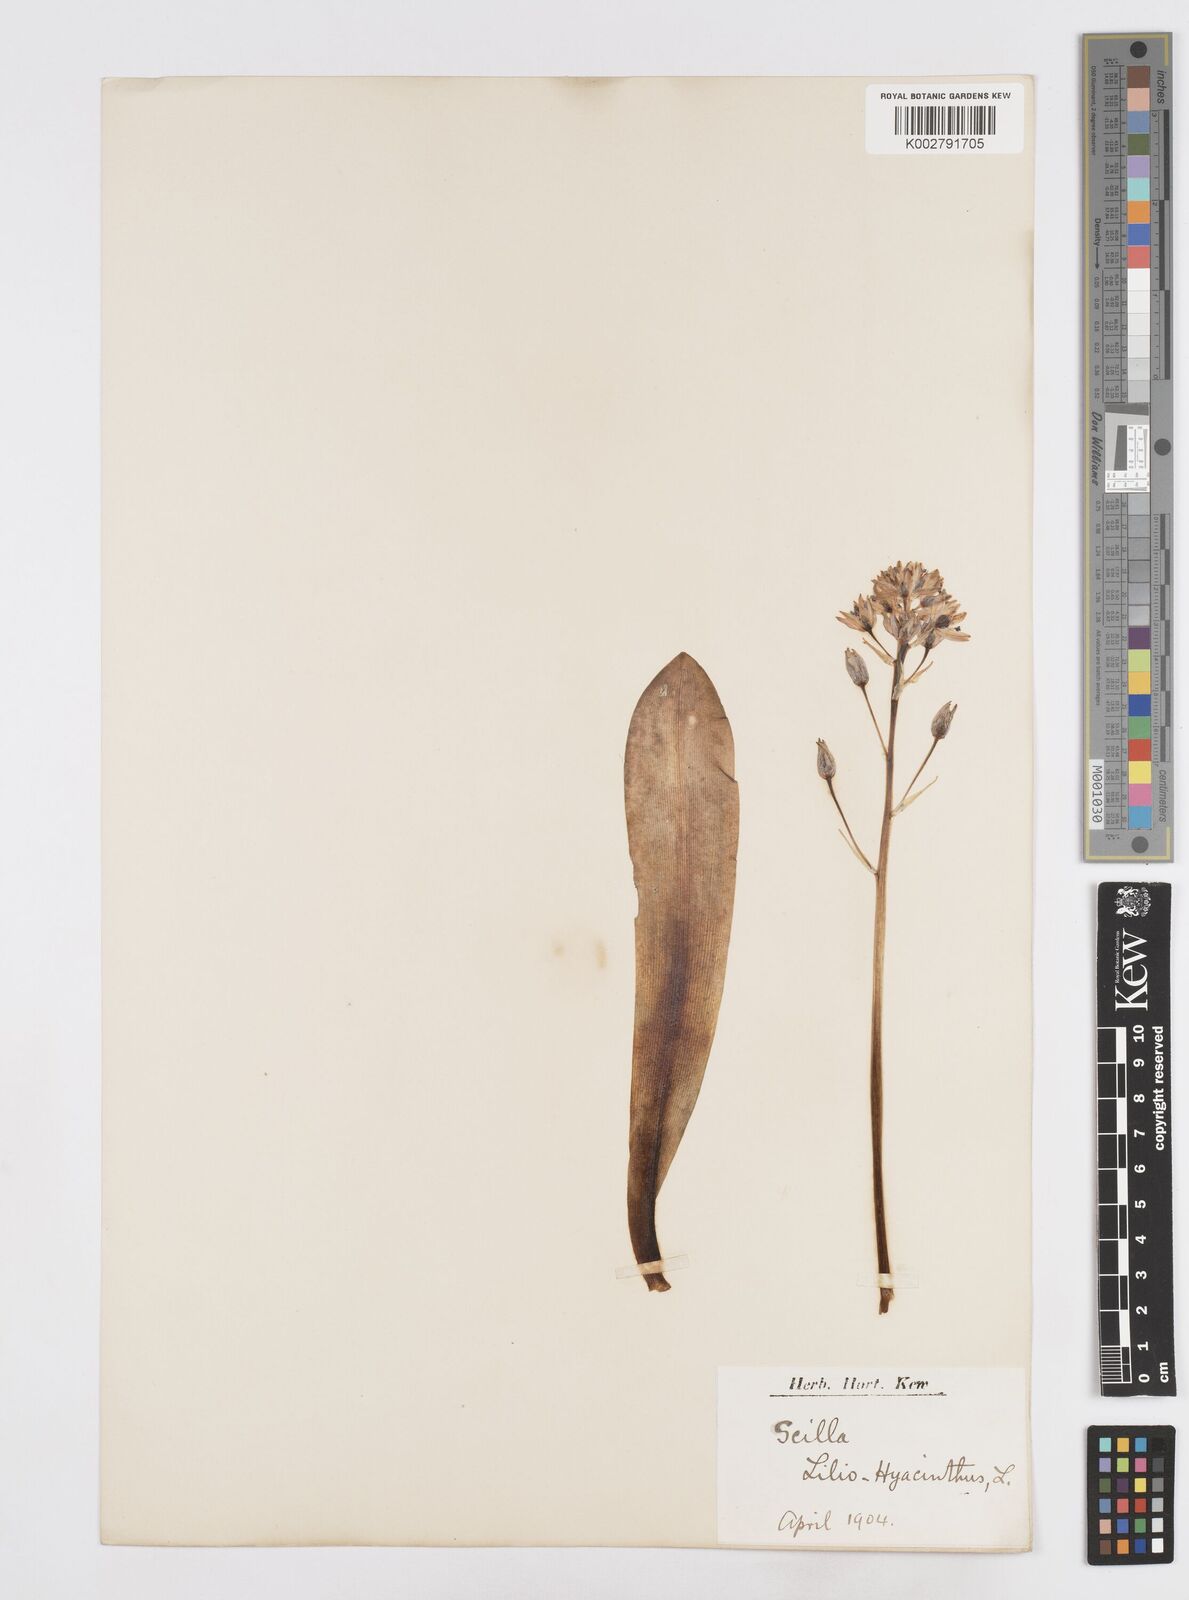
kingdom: Plantae
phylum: Tracheophyta
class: Liliopsida
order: Asparagales
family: Asparagaceae
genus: Scilla
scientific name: Scilla lilio-hyacinthus
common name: Pyrenean squill
